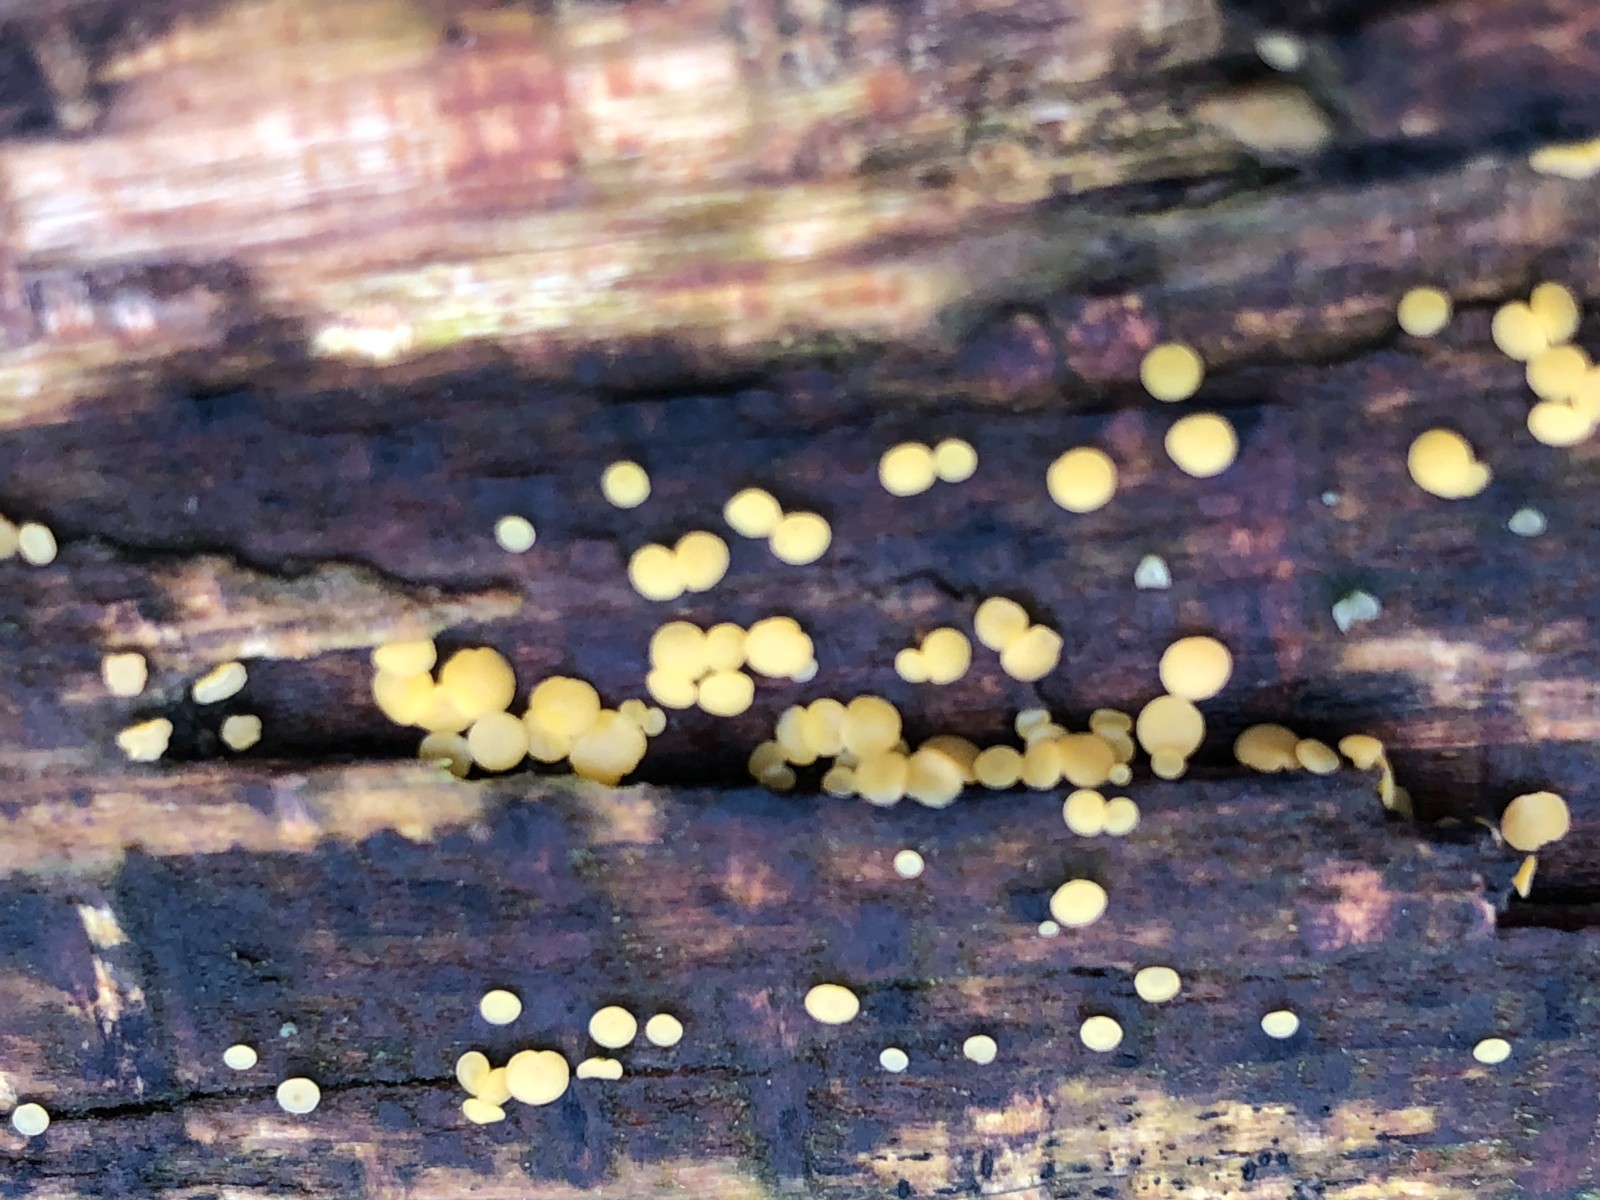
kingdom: Fungi
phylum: Ascomycota
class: Leotiomycetes
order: Helotiales
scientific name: Helotiales
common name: stilkskiveordenen
